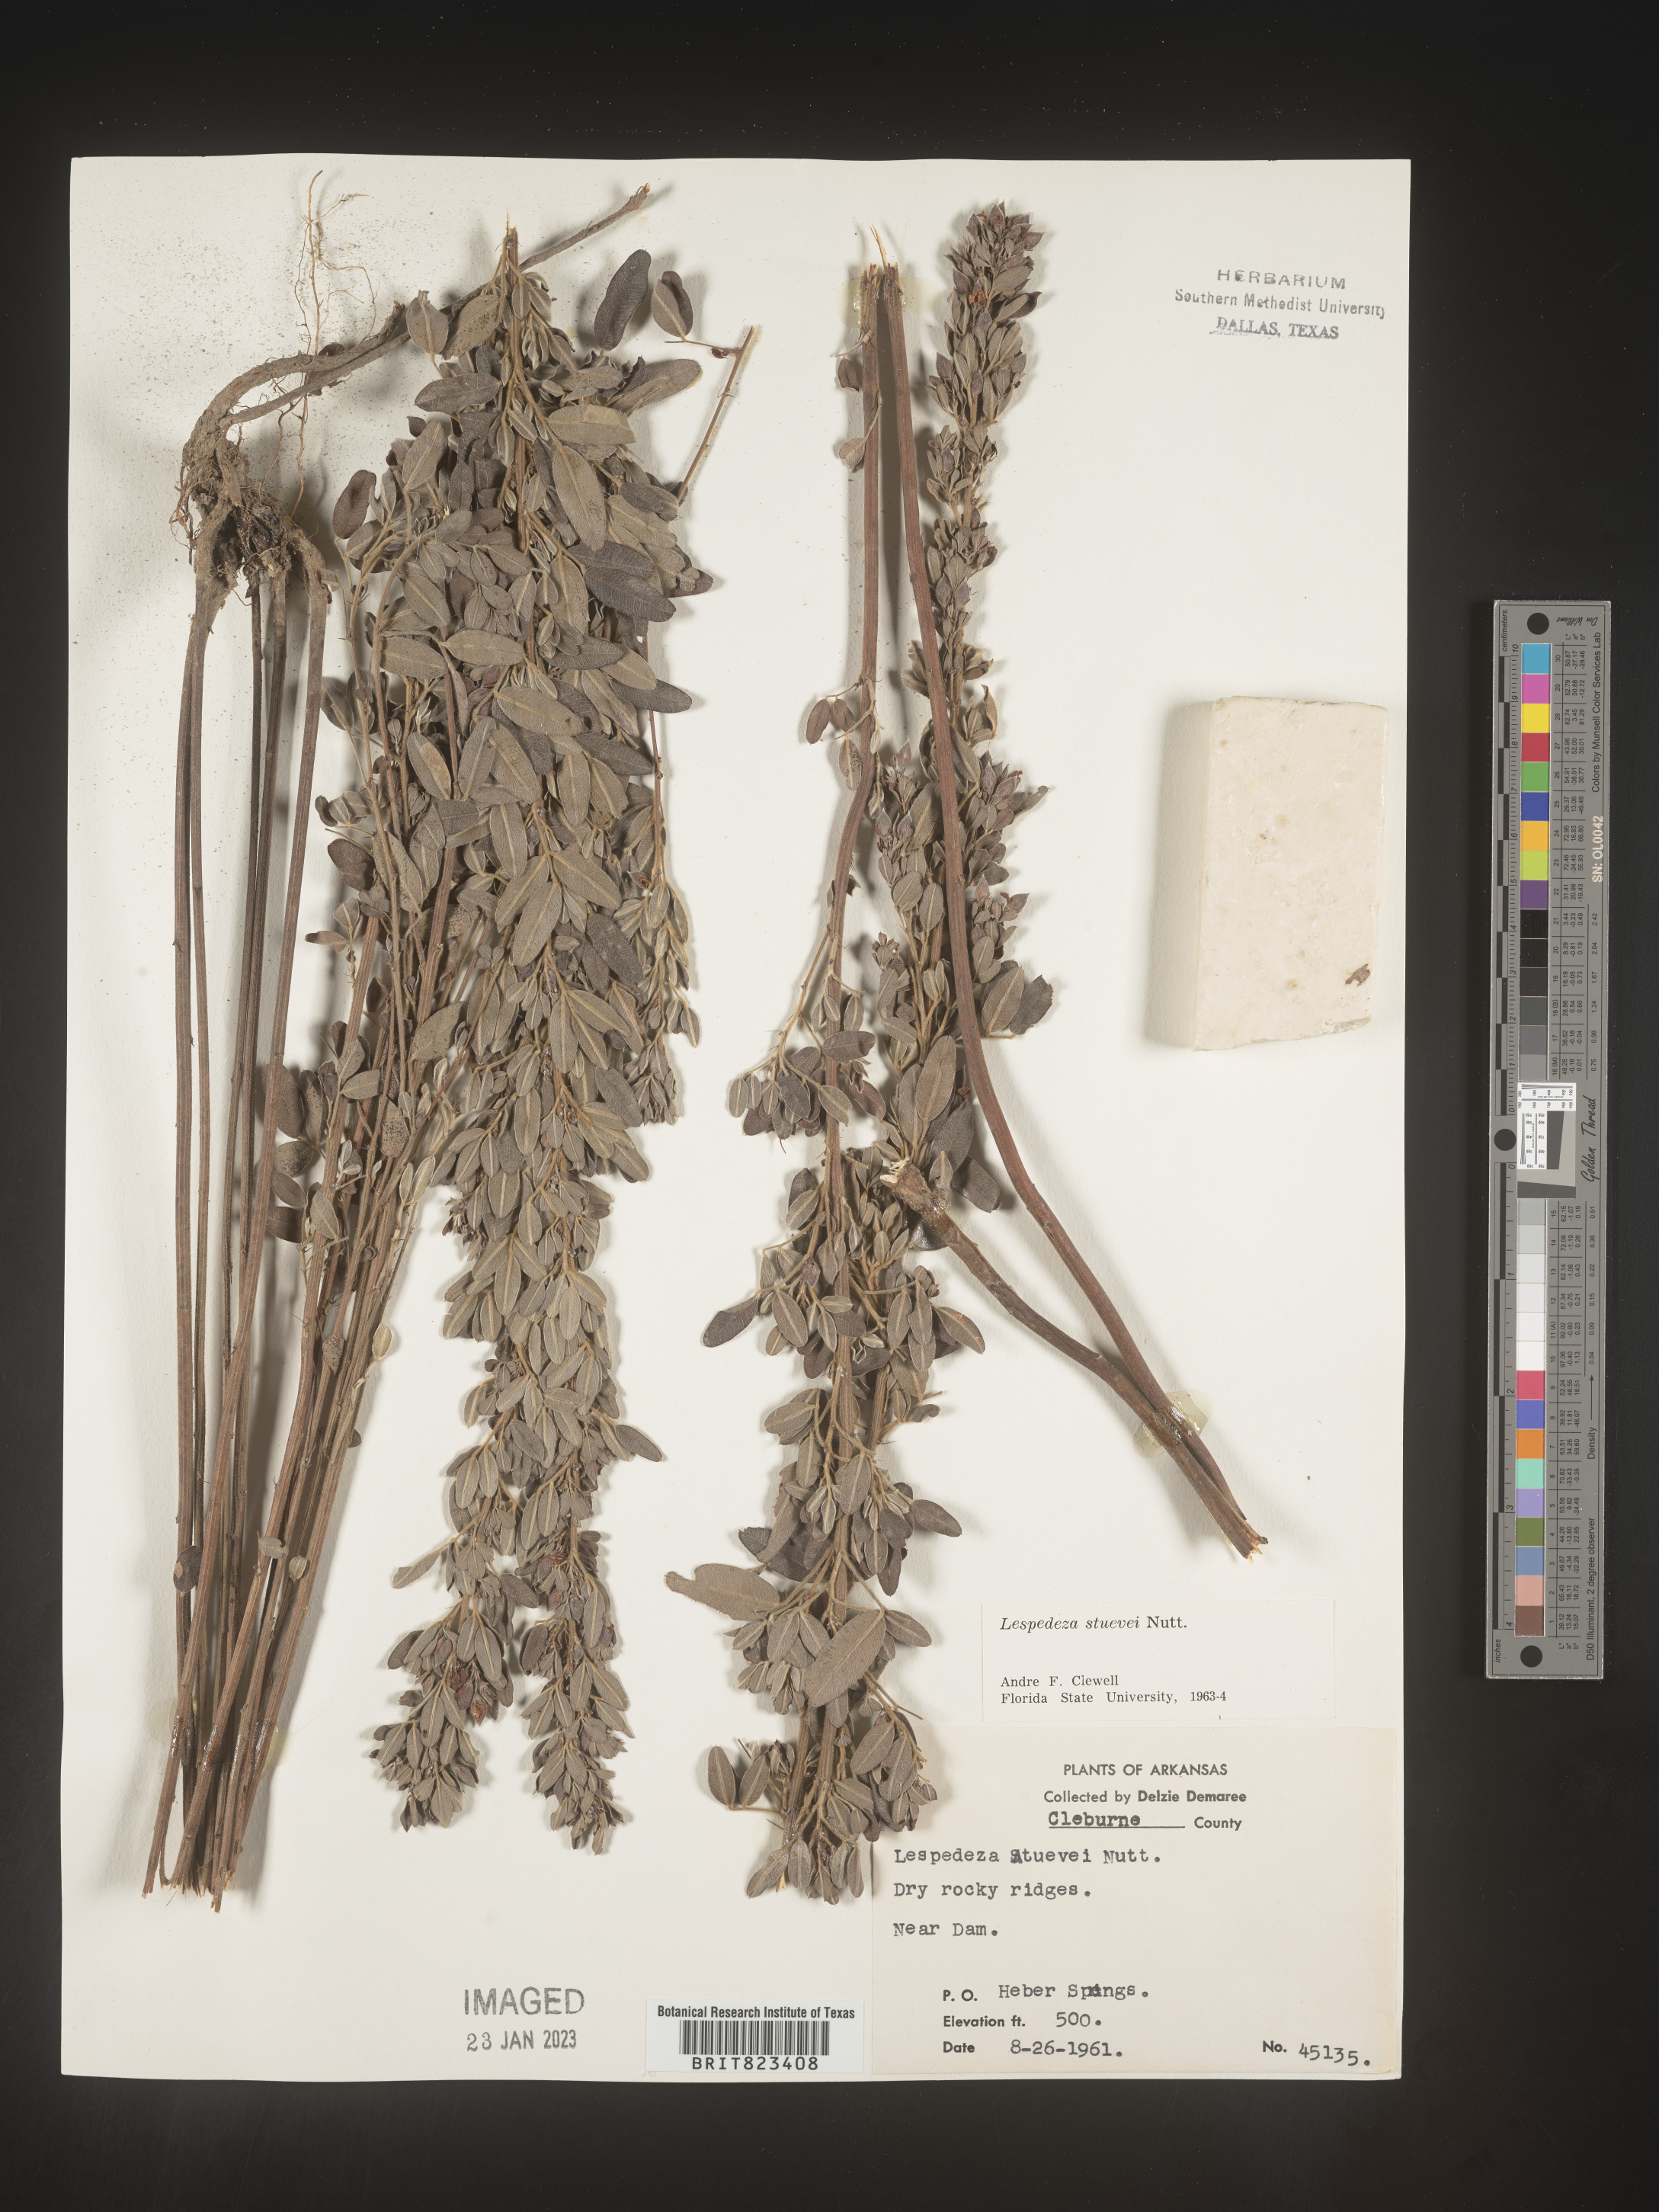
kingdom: Plantae
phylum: Tracheophyta
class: Magnoliopsida
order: Fabales
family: Fabaceae
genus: Lespedeza
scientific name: Lespedeza stuevei
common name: Tall bush-clover
